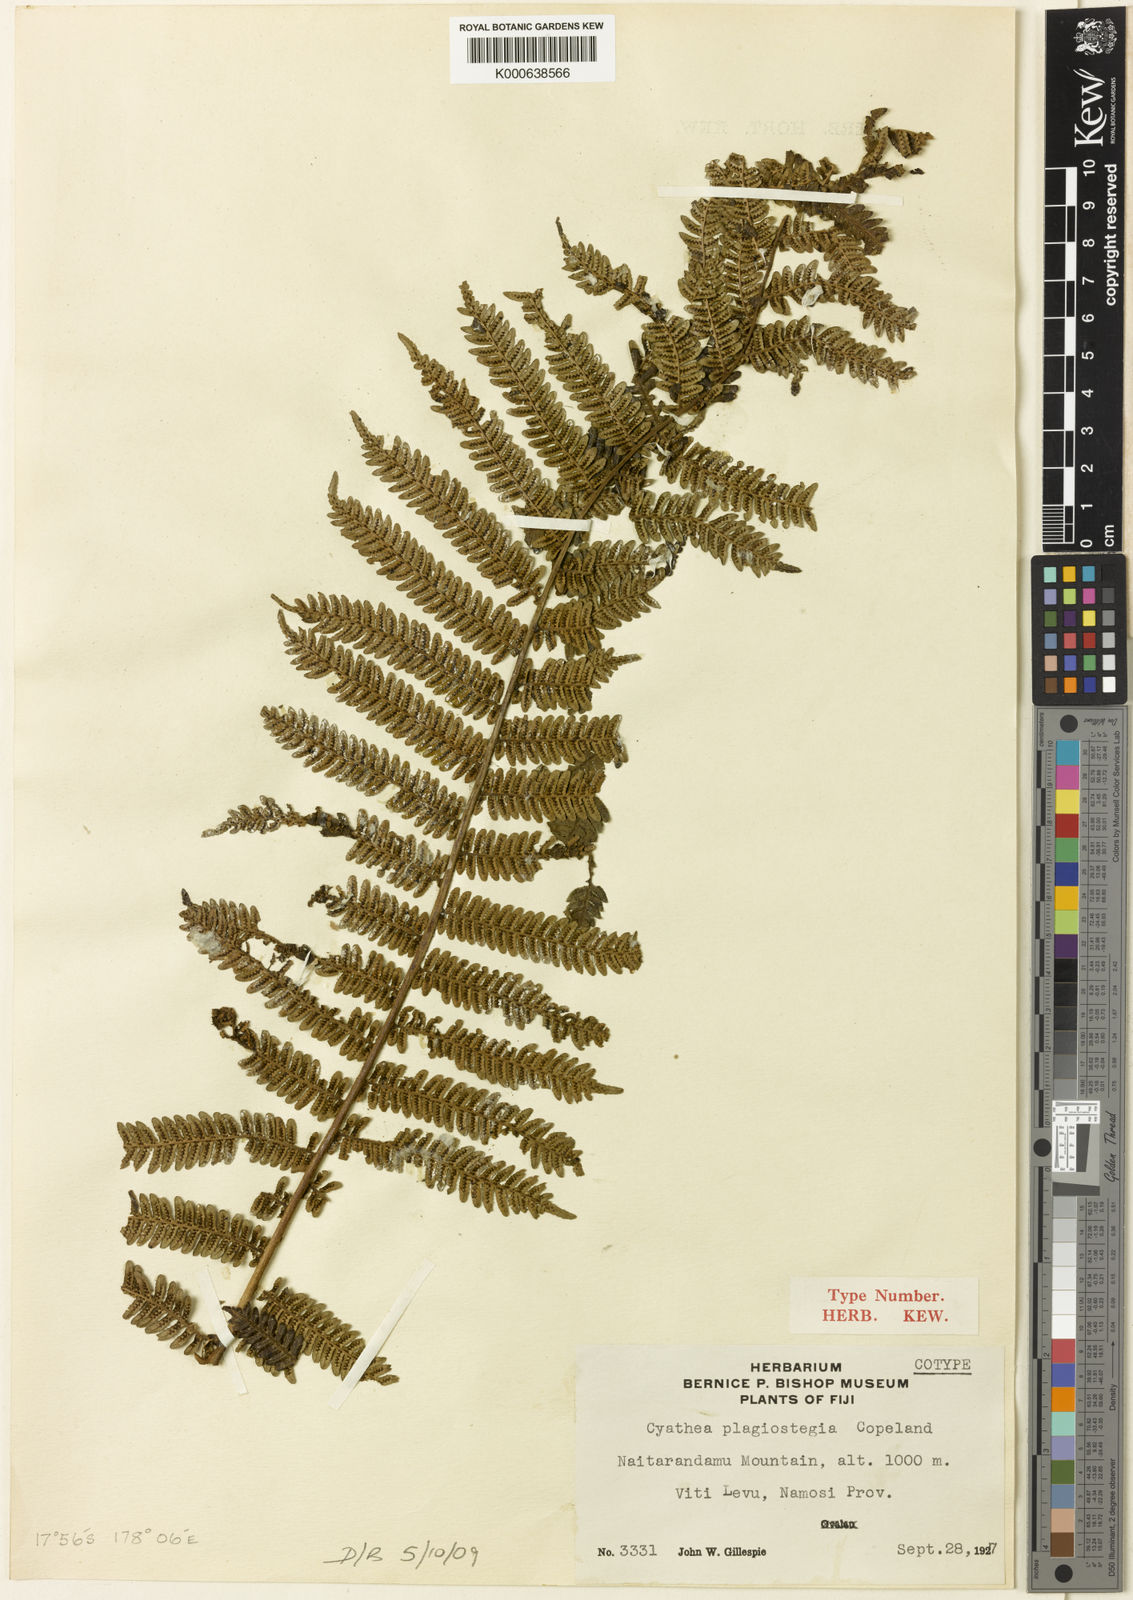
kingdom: Plantae
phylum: Tracheophyta
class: Polypodiopsida
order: Cyatheales
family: Cyatheaceae
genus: Sphaeropteris
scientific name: Sphaeropteris samoensis
